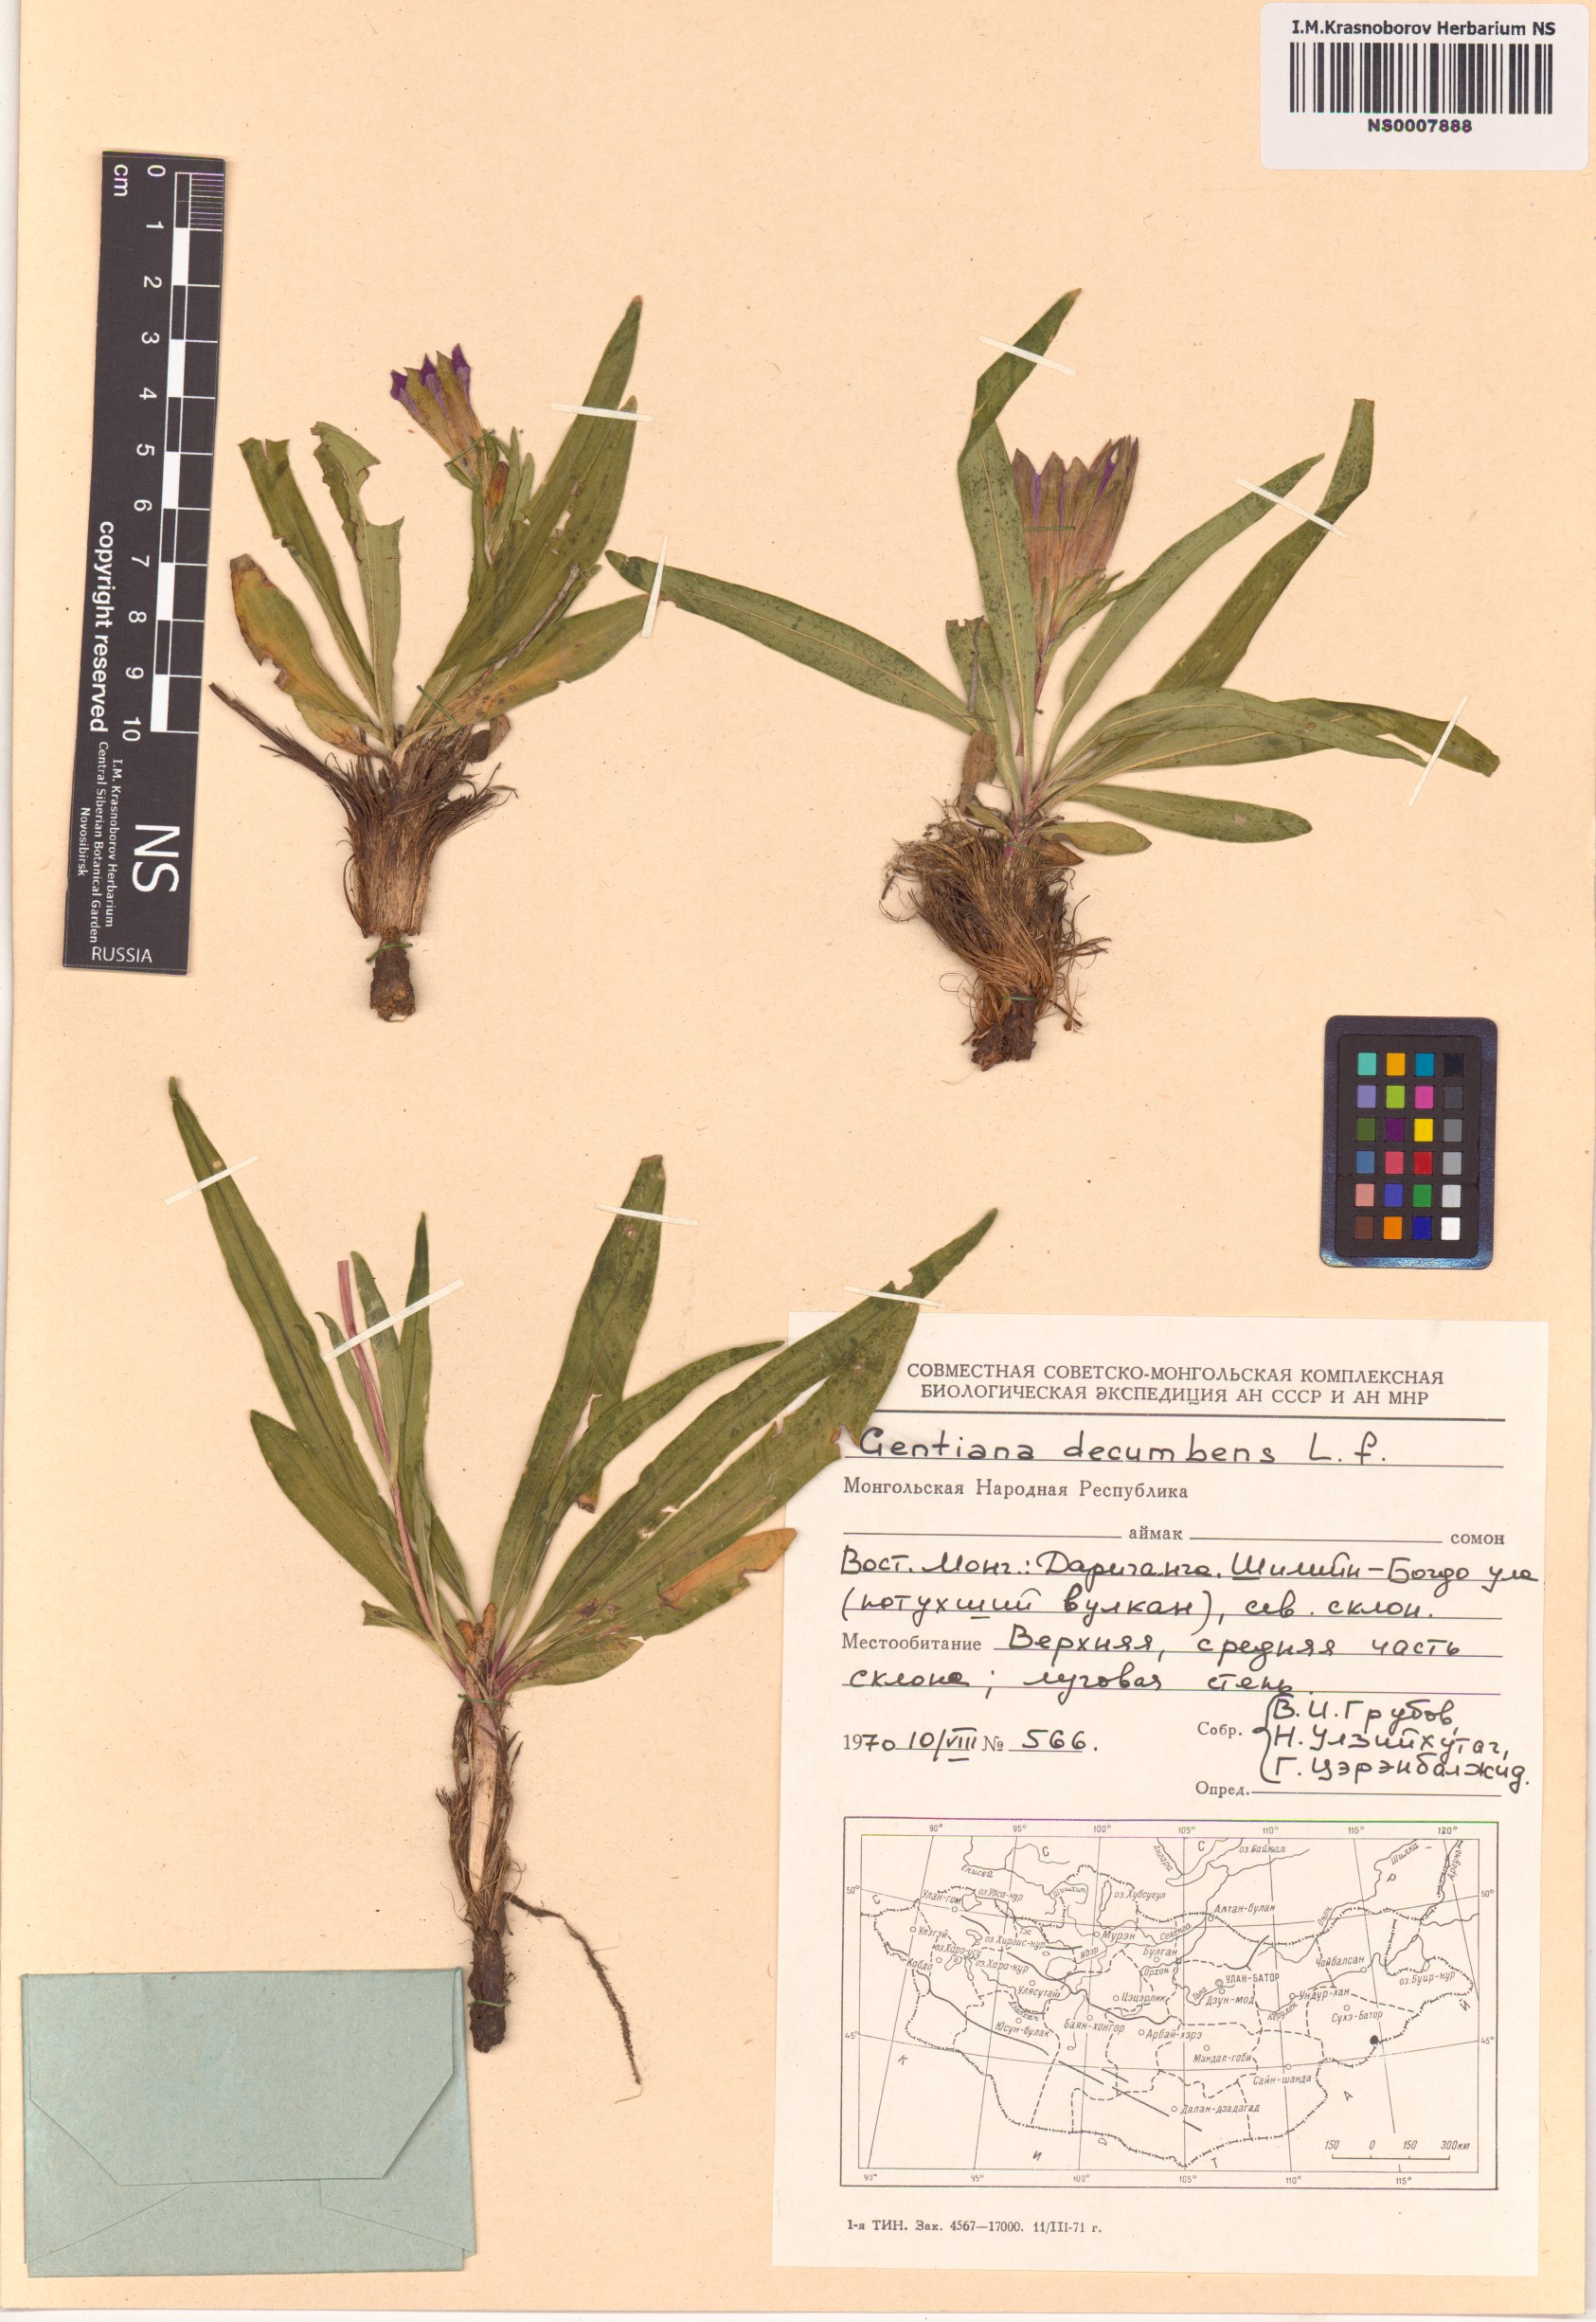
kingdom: Plantae
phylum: Tracheophyta
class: Magnoliopsida
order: Gentianales
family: Gentianaceae
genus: Gentiana
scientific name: Gentiana decumbens
